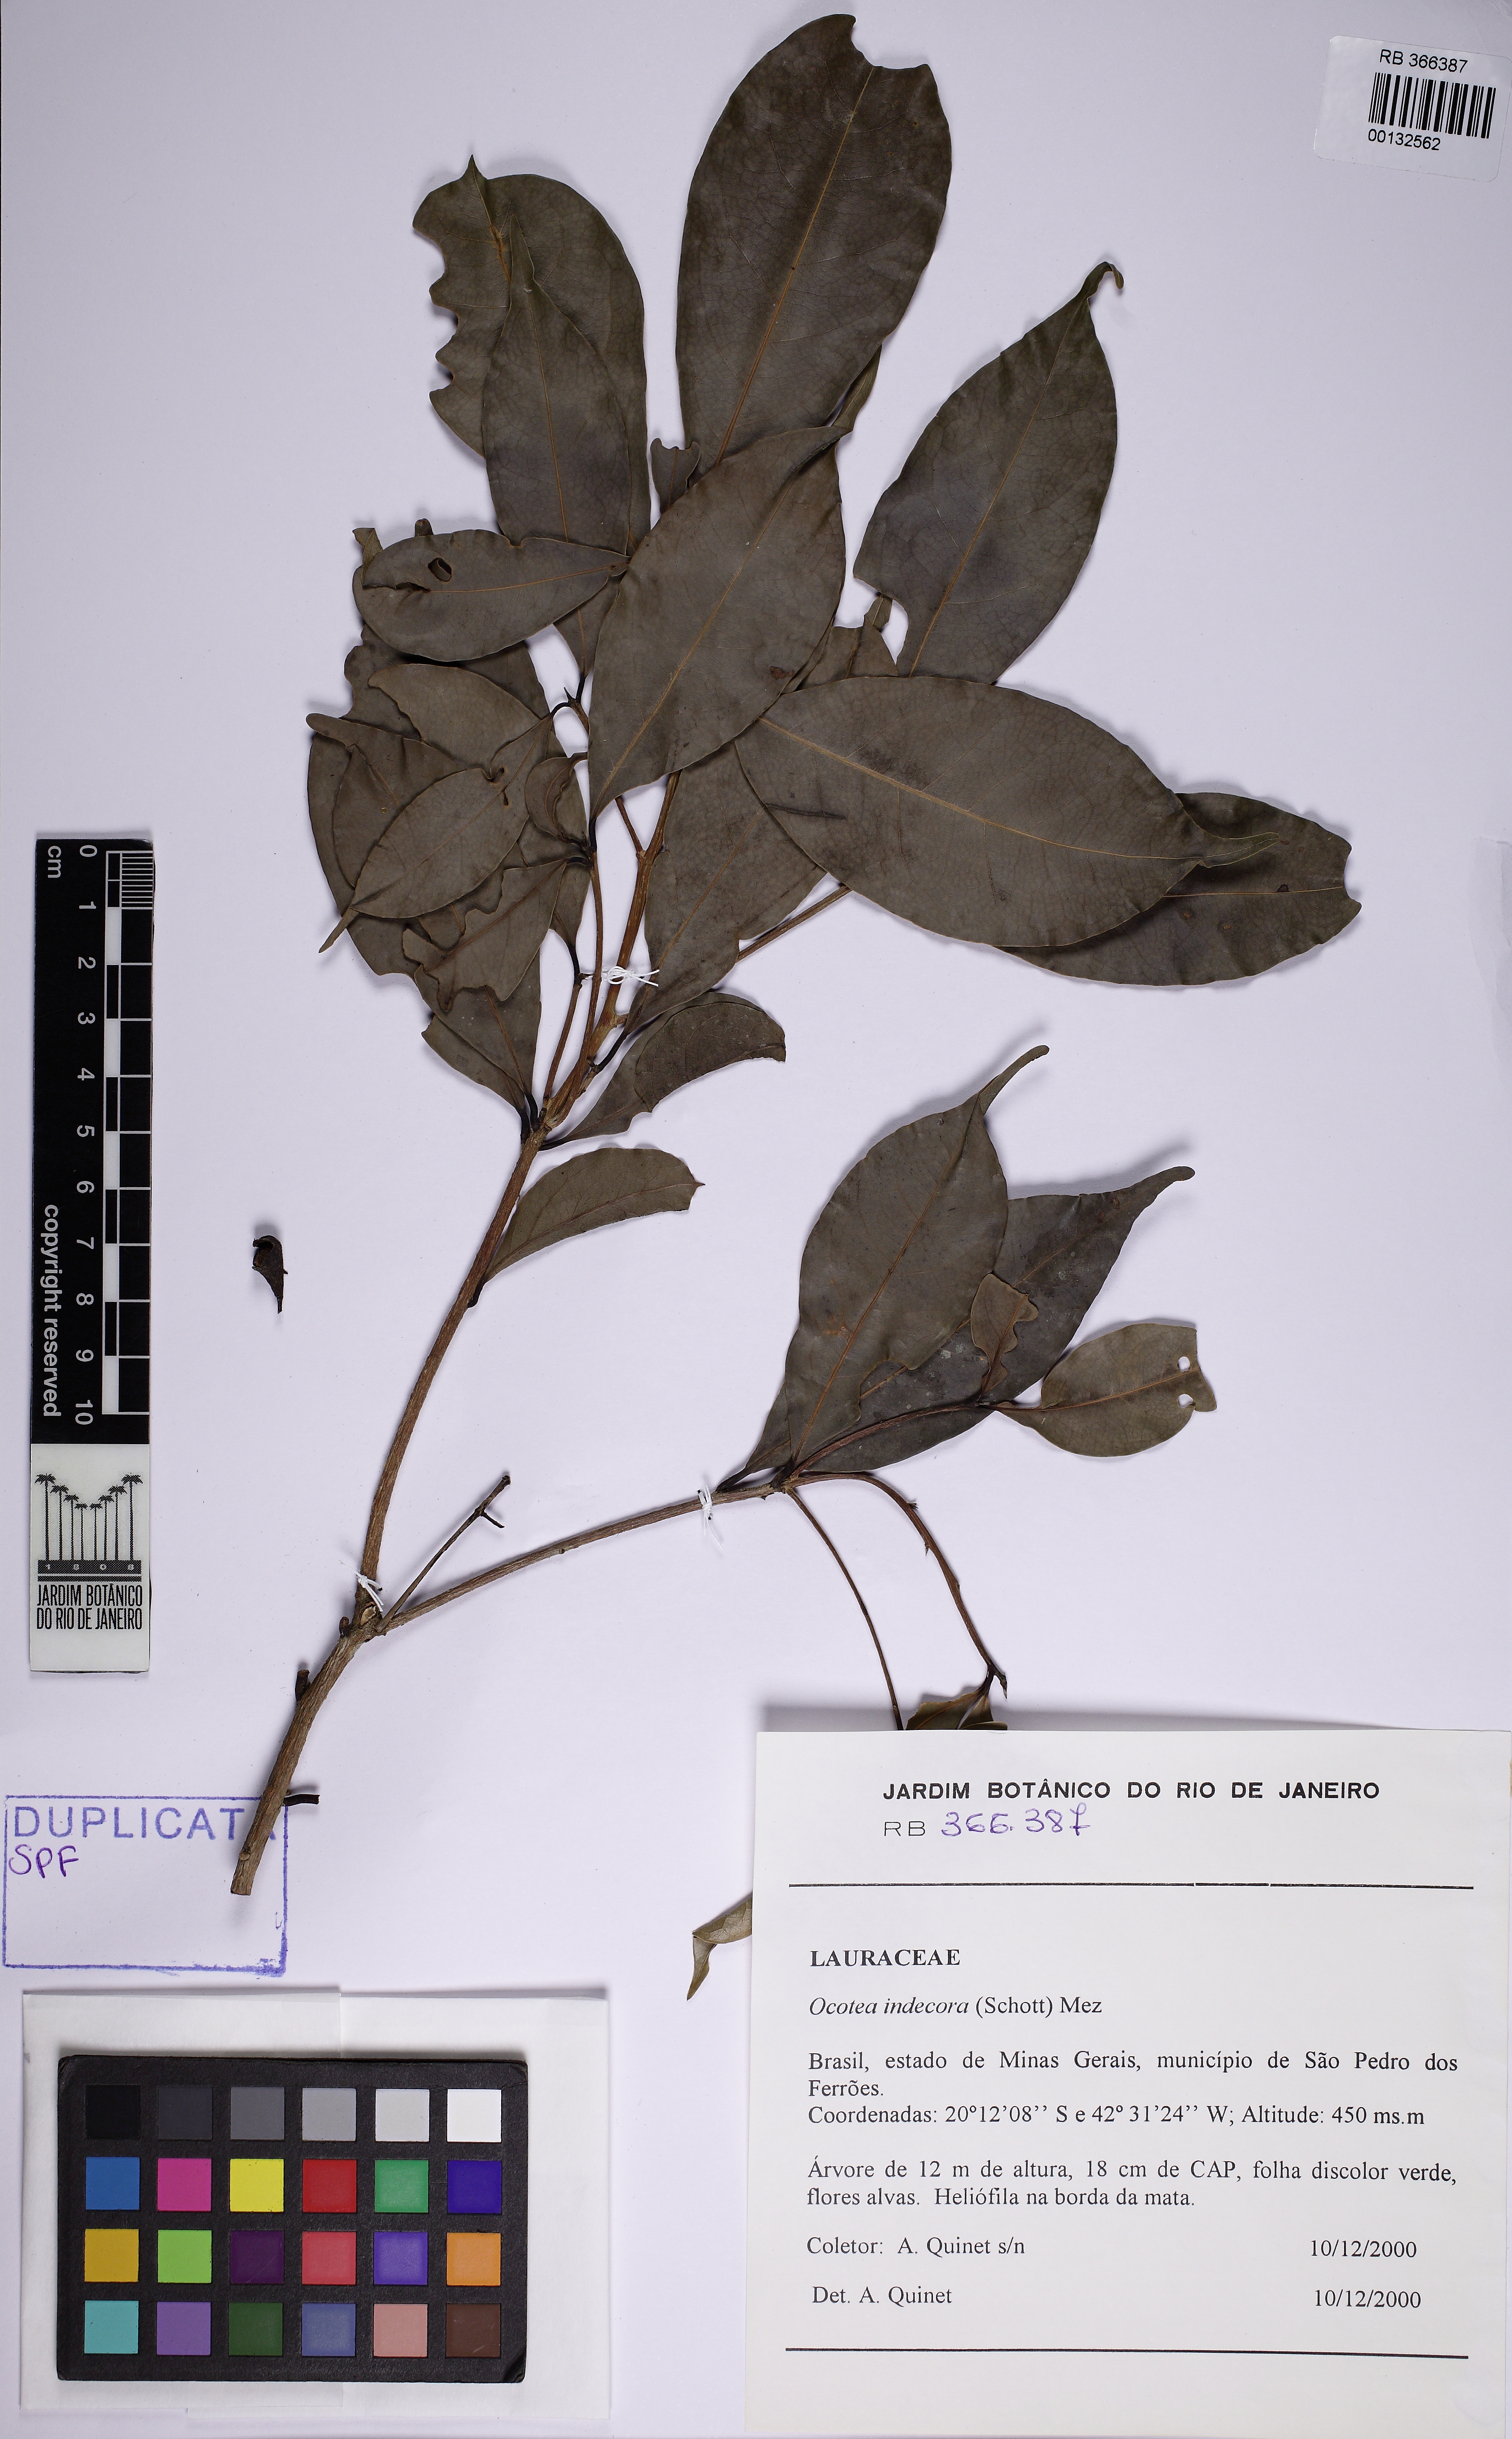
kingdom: Plantae
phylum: Tracheophyta
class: Magnoliopsida
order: Laurales
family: Lauraceae
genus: Mespilodaphne
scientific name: Mespilodaphne indecora
